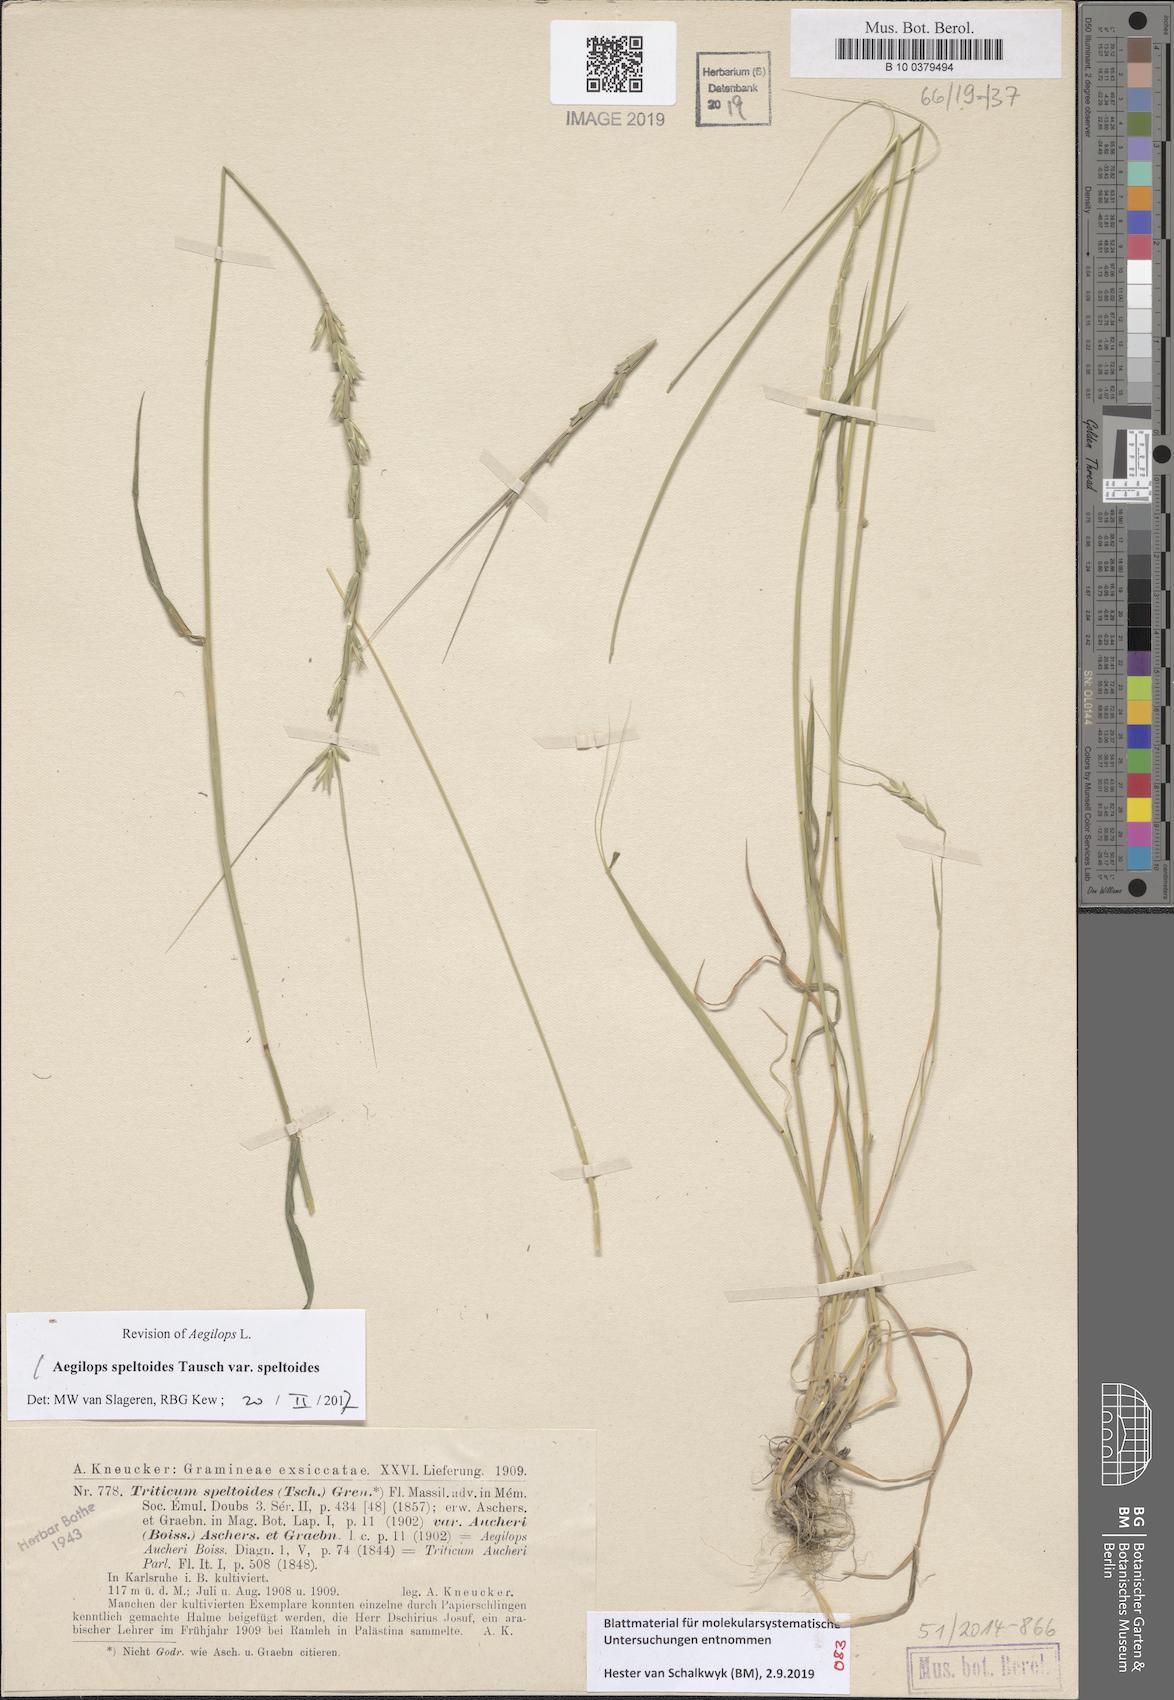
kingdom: Plantae
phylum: Tracheophyta
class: Liliopsida
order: Poales
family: Poaceae
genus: Aegilops
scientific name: Aegilops speltoides
